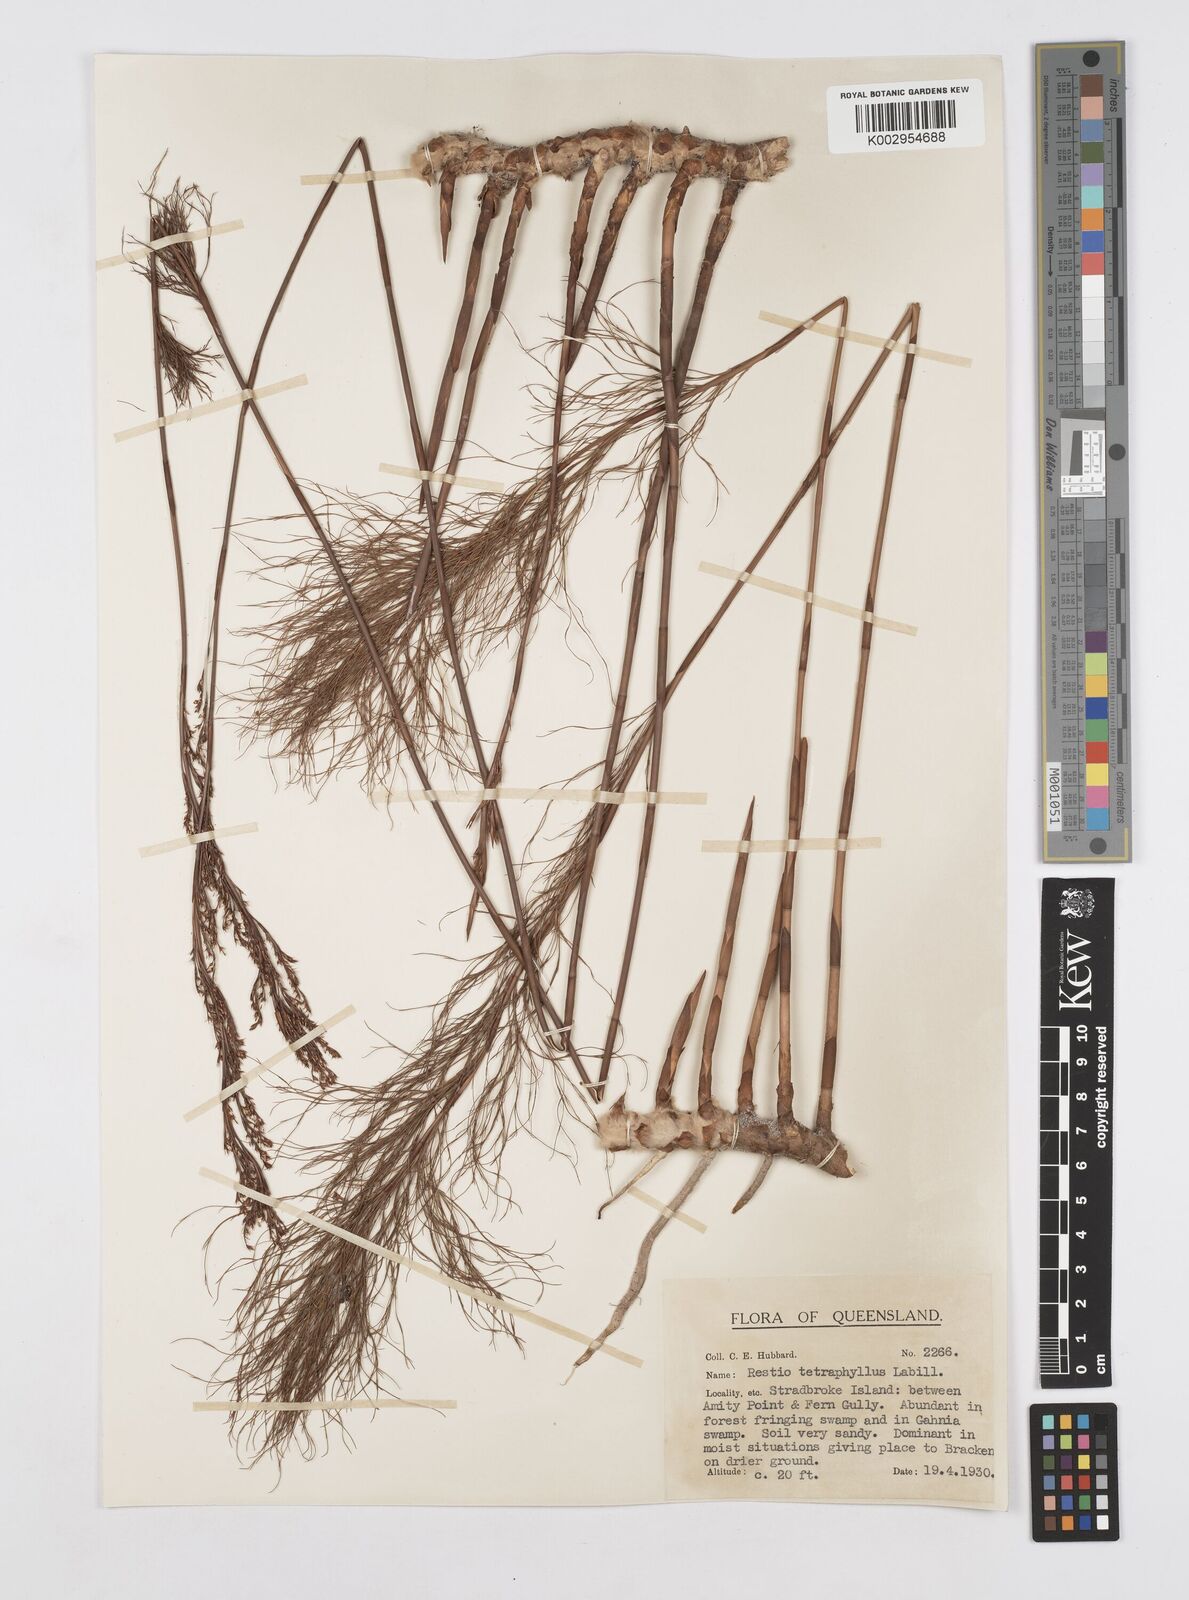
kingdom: Plantae
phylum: Tracheophyta
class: Liliopsida
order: Poales
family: Restionaceae
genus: Baloskion
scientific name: Baloskion tetraphyllum
